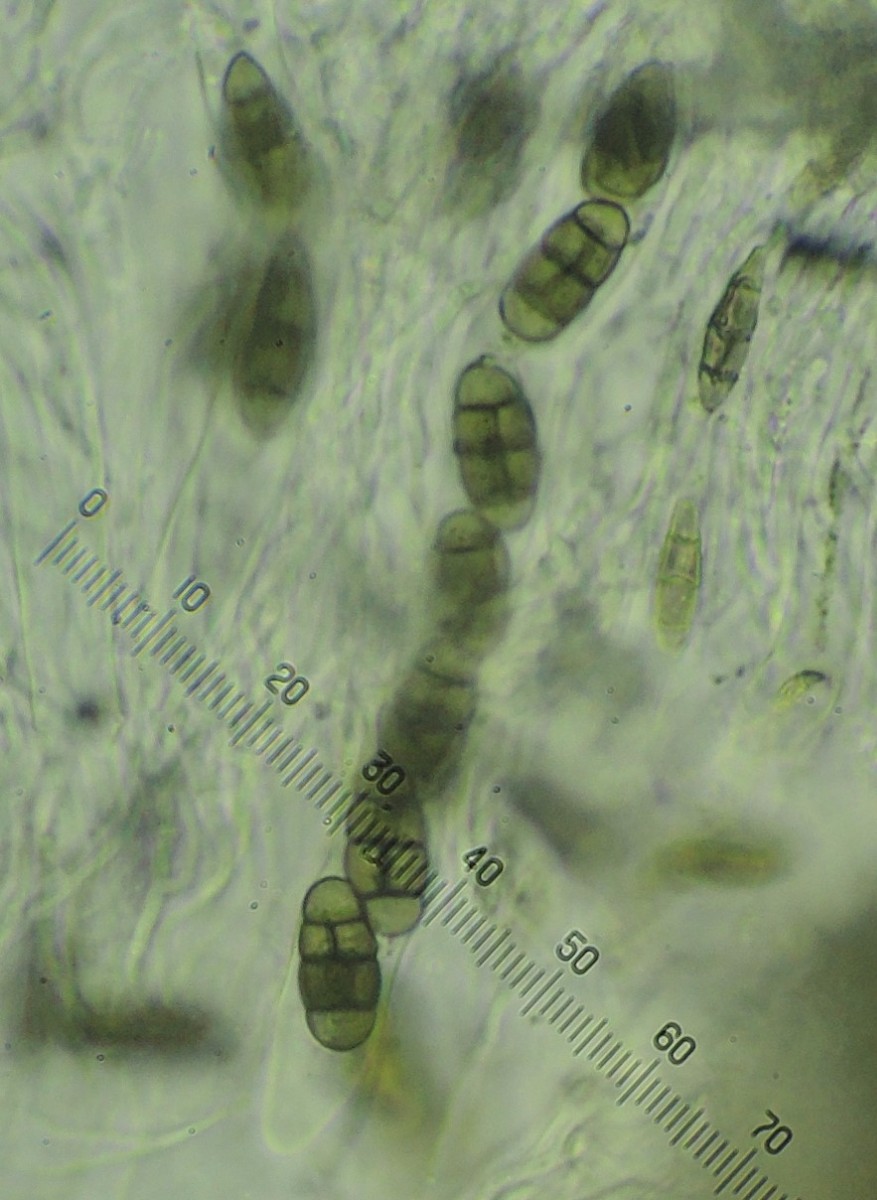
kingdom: Fungi
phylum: Ascomycota
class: Dothideomycetes
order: Pleosporales
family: Didymosphaeriaceae
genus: Staurosphaeria
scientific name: Staurosphaeria lyciicola
